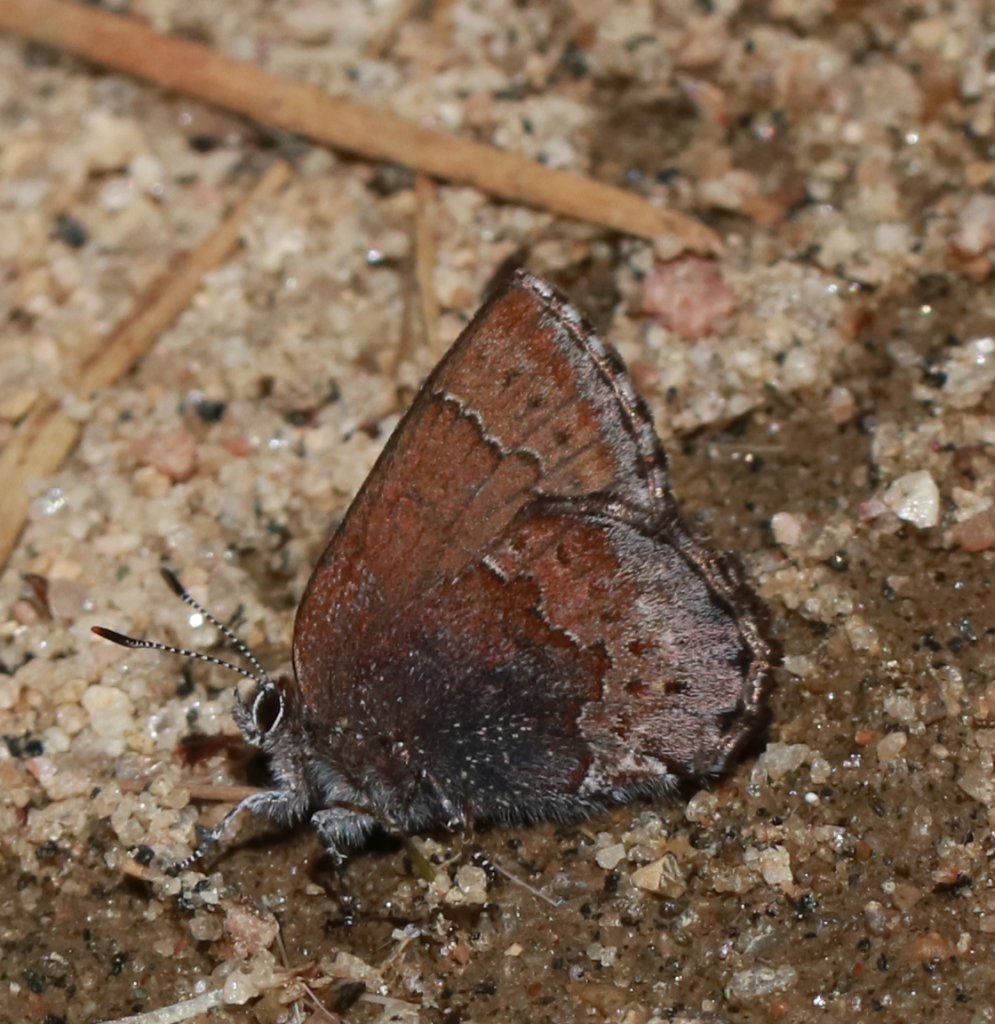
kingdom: Animalia
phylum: Arthropoda
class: Insecta
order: Lepidoptera
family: Lycaenidae
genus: Callophrys
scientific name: Callophrys polios
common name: Hoary Elfin
